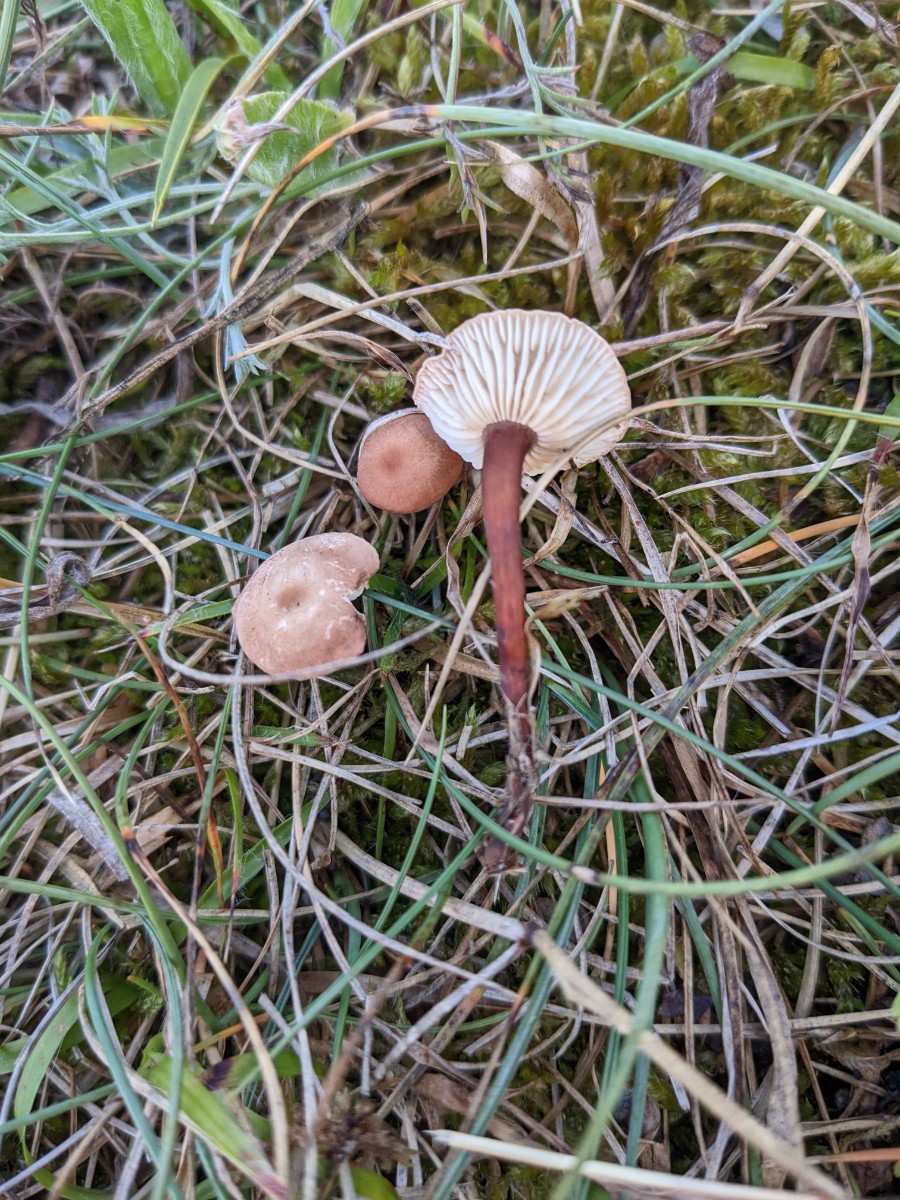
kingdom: Fungi
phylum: Basidiomycota
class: Agaricomycetes
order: Agaricales
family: Omphalotaceae
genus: Mycetinis
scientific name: Mycetinis scorodonius
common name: lille løghat
